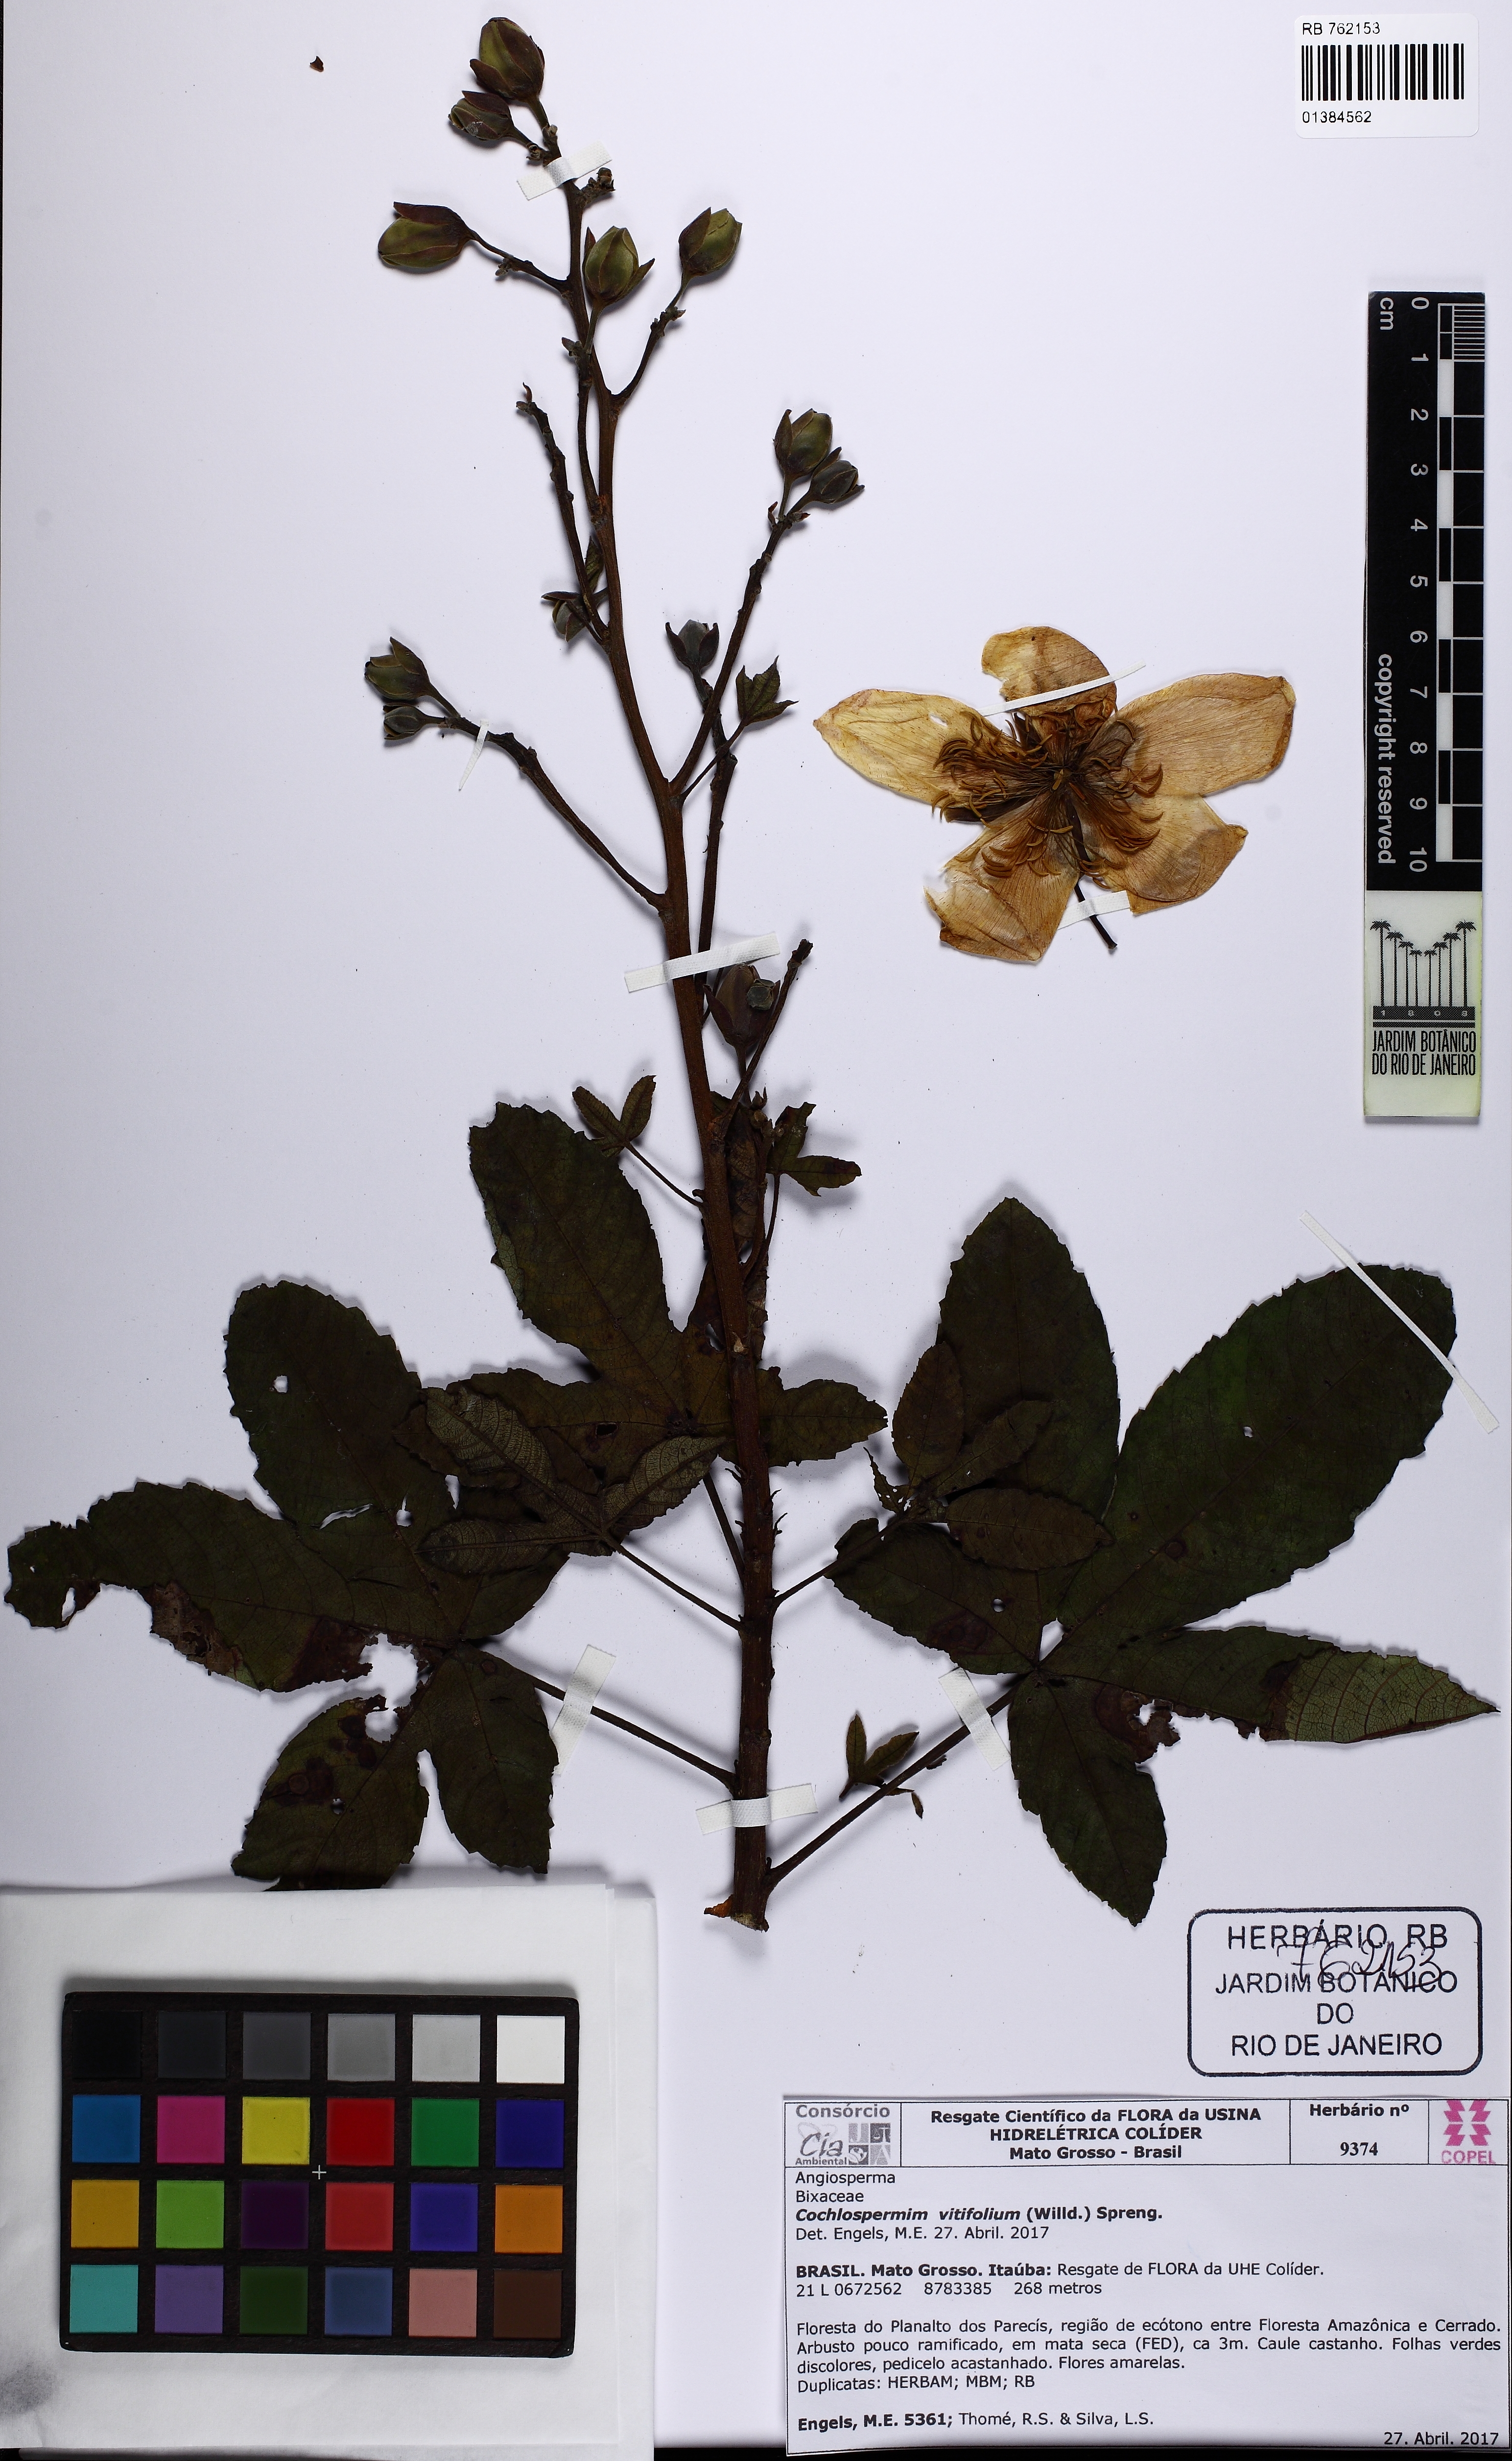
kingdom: Plantae
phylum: Tracheophyta
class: Magnoliopsida
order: Malvales
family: Cochlospermaceae
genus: Cochlospermum
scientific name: Cochlospermum vitifolium
